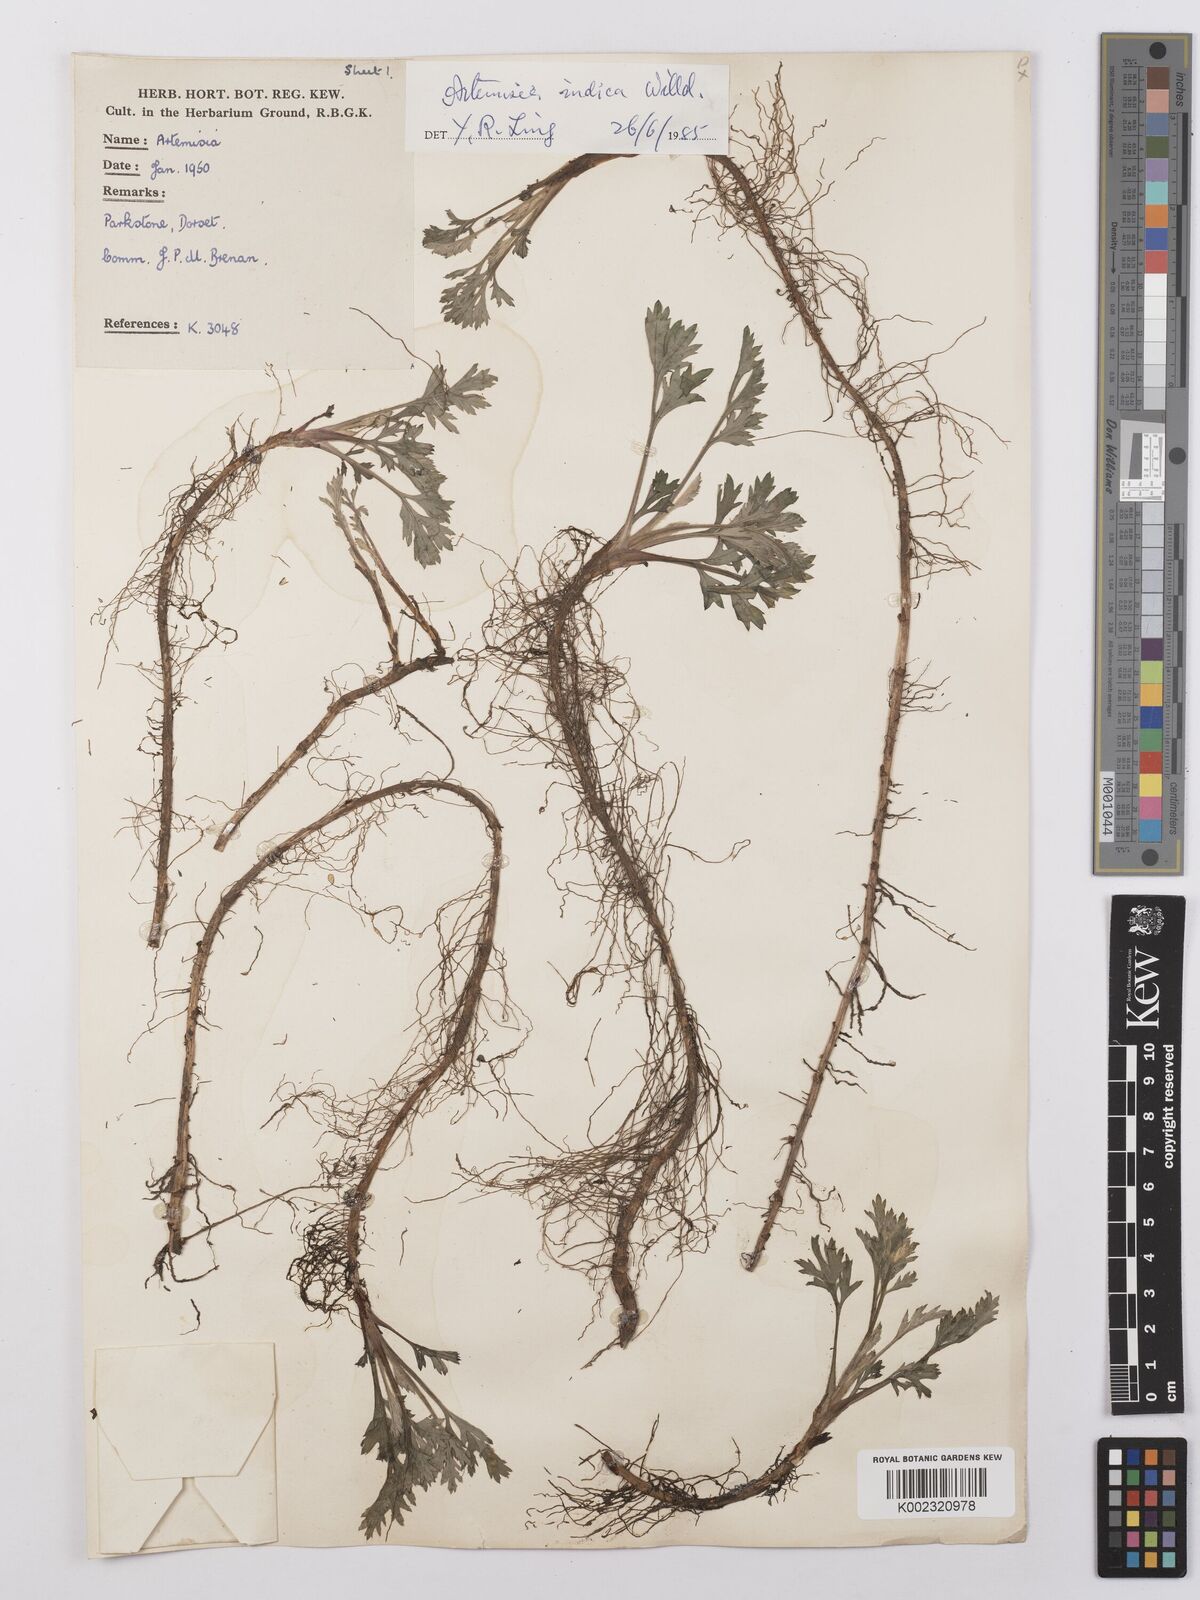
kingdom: Plantae
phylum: Tracheophyta
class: Magnoliopsida
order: Asterales
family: Asteraceae
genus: Artemisia
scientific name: Artemisia
